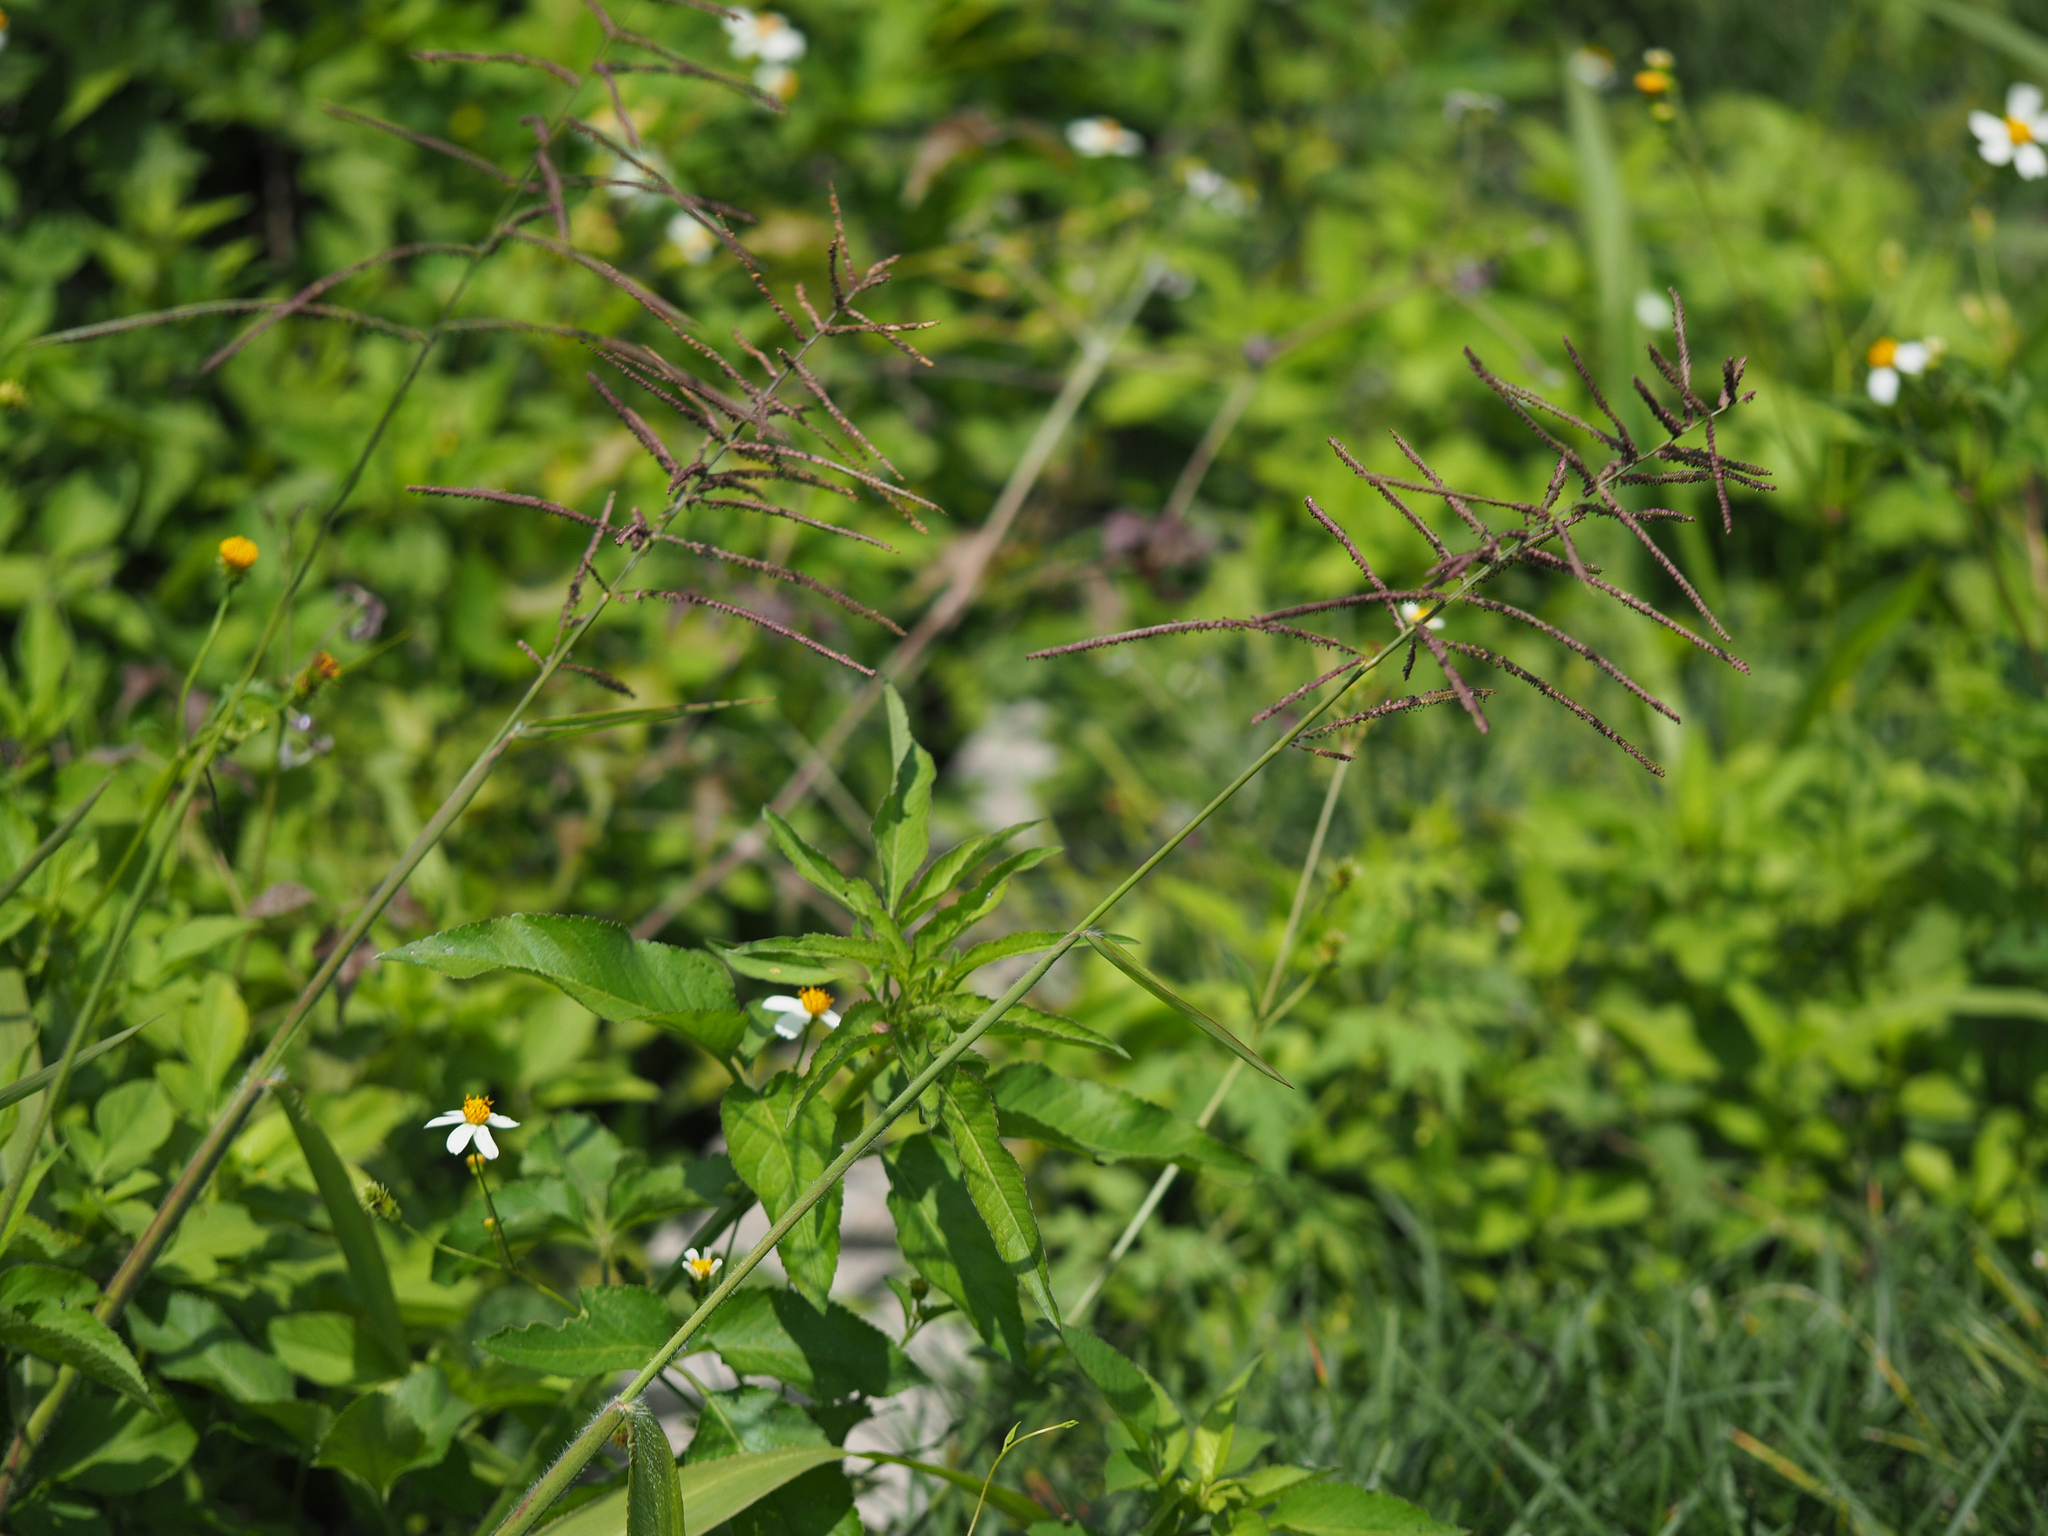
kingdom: Plantae
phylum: Tracheophyta
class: Liliopsida
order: Poales
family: Poaceae
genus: Paspalum
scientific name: Paspalum paniculatum
